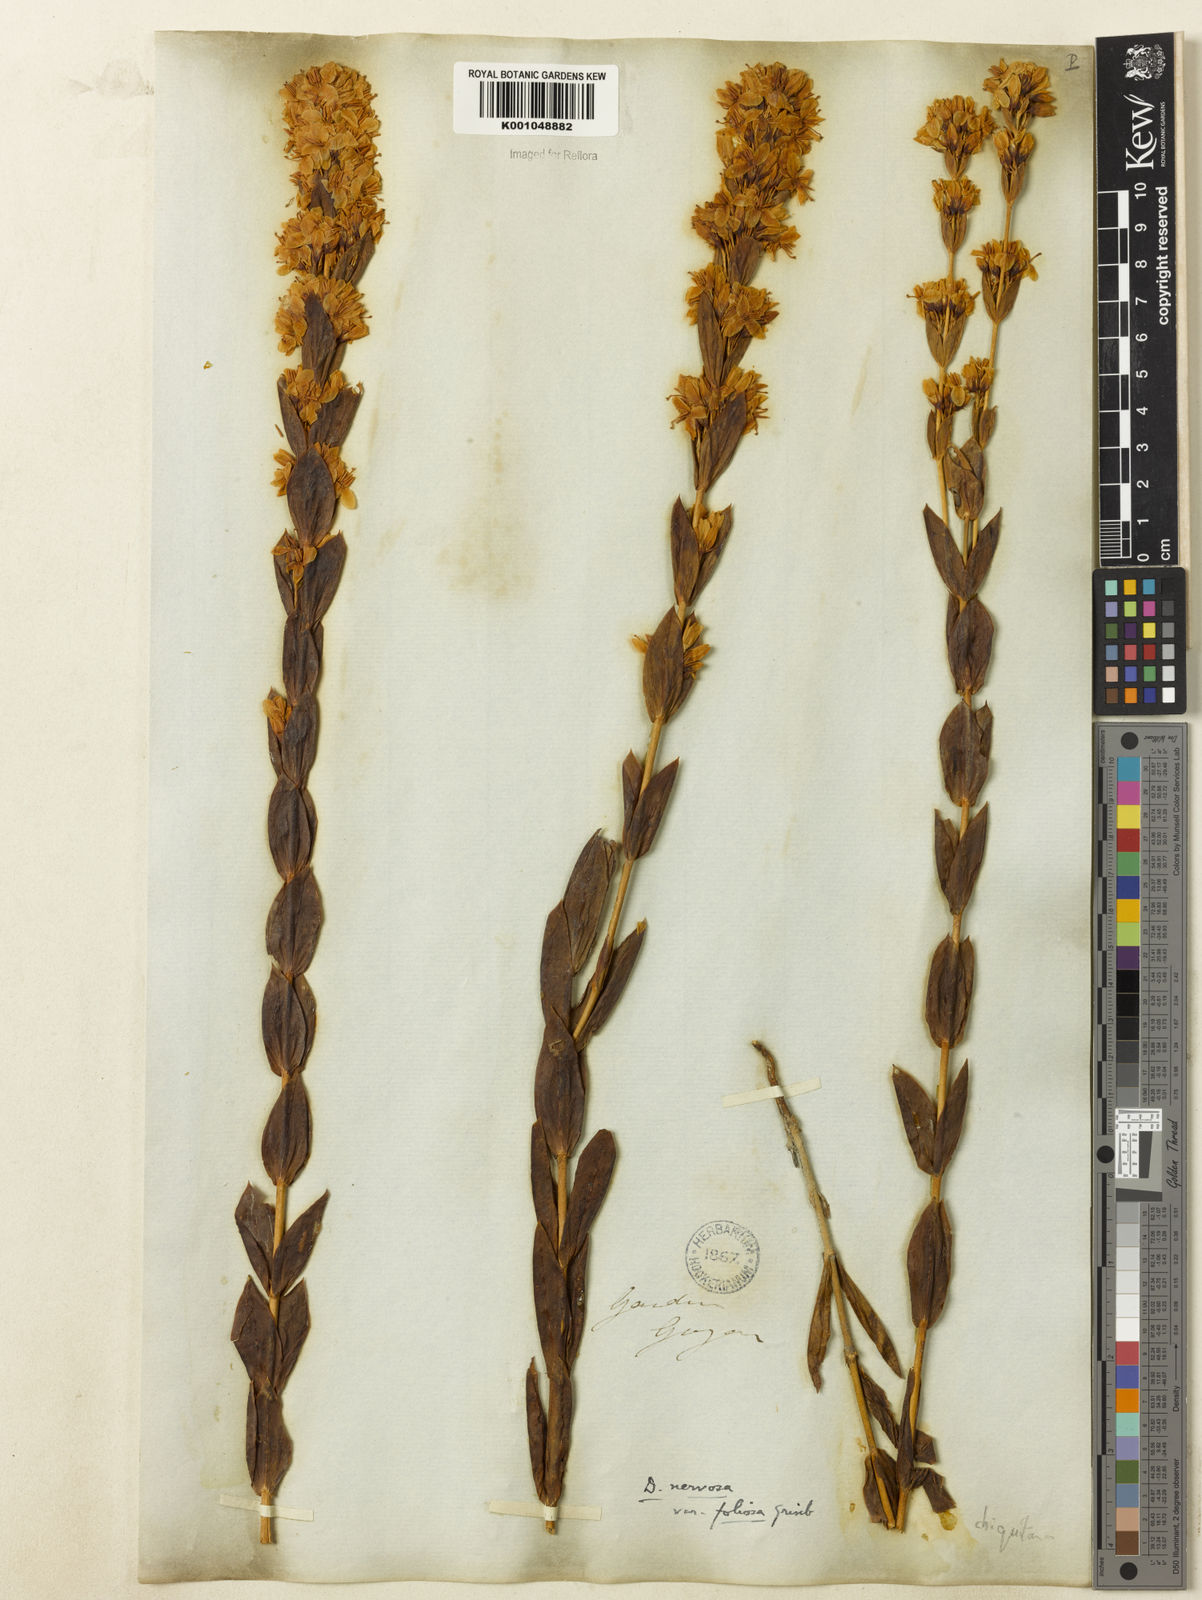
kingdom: Plantae
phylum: Tracheophyta
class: Magnoliopsida
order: Gentianales
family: Gentianaceae
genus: Deianira
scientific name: Deianira chiquitana
